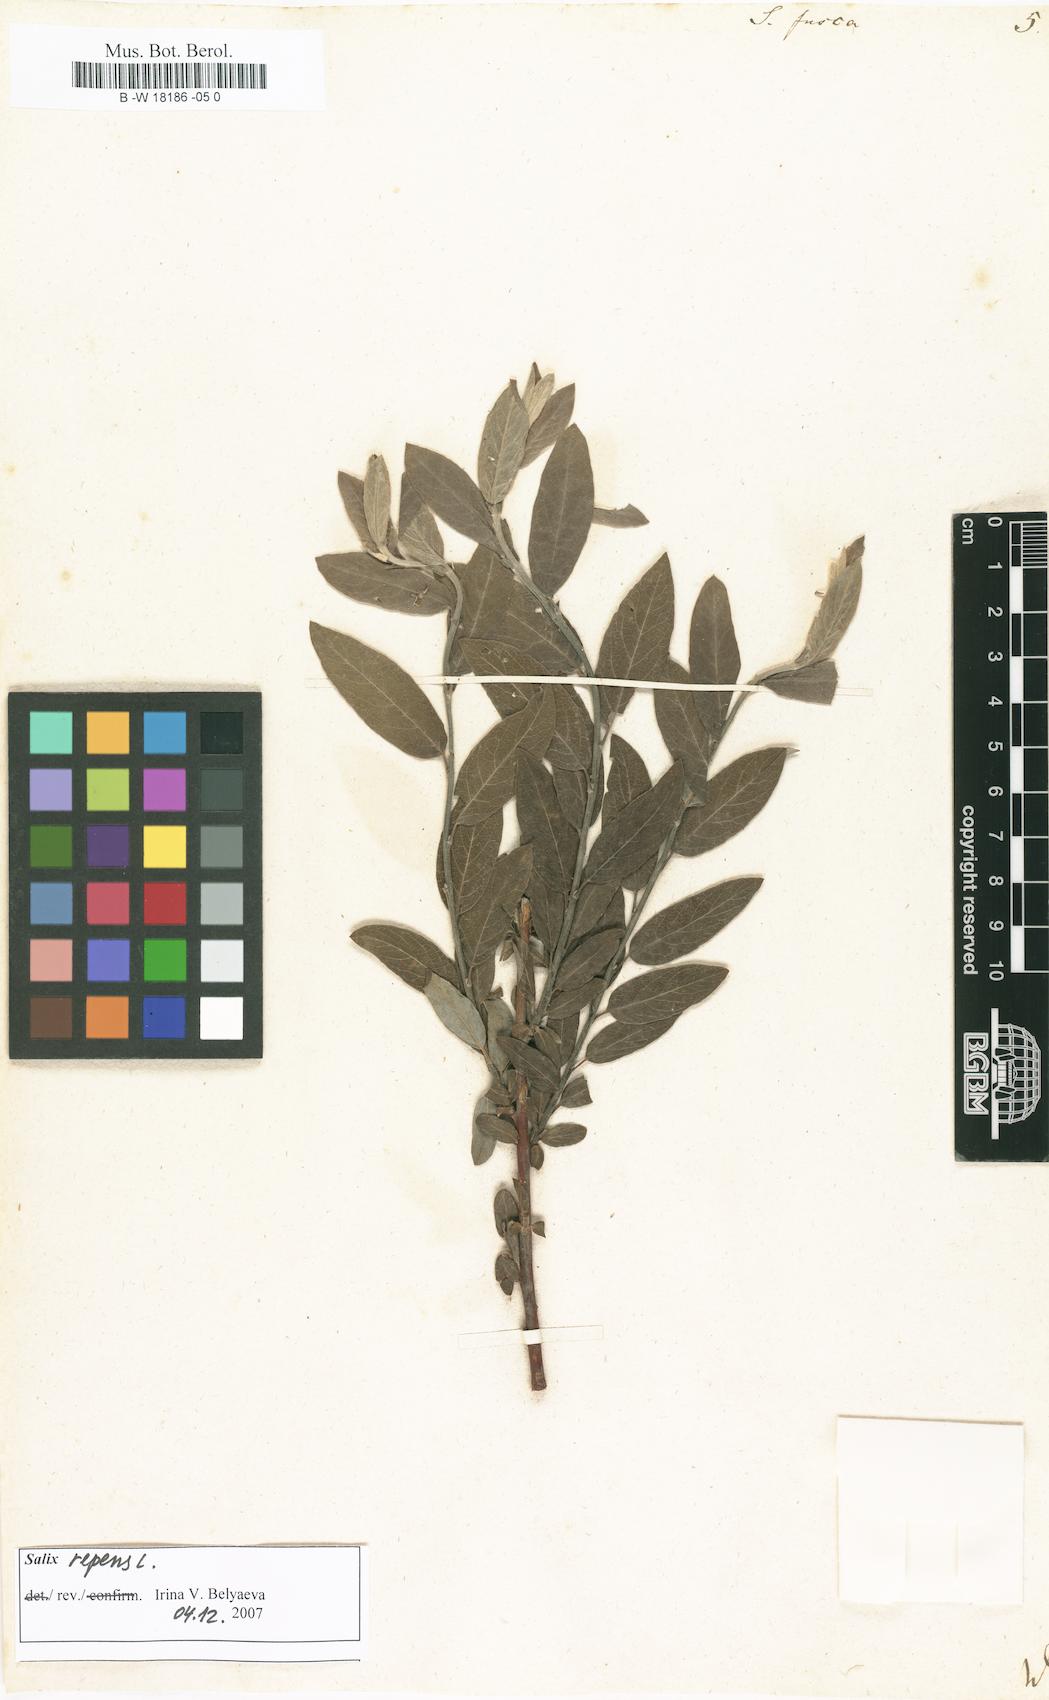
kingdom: Plantae
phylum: Tracheophyta
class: Magnoliopsida
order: Malpighiales
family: Salicaceae
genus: Salix
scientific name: Salix repens
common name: Creeping willow
